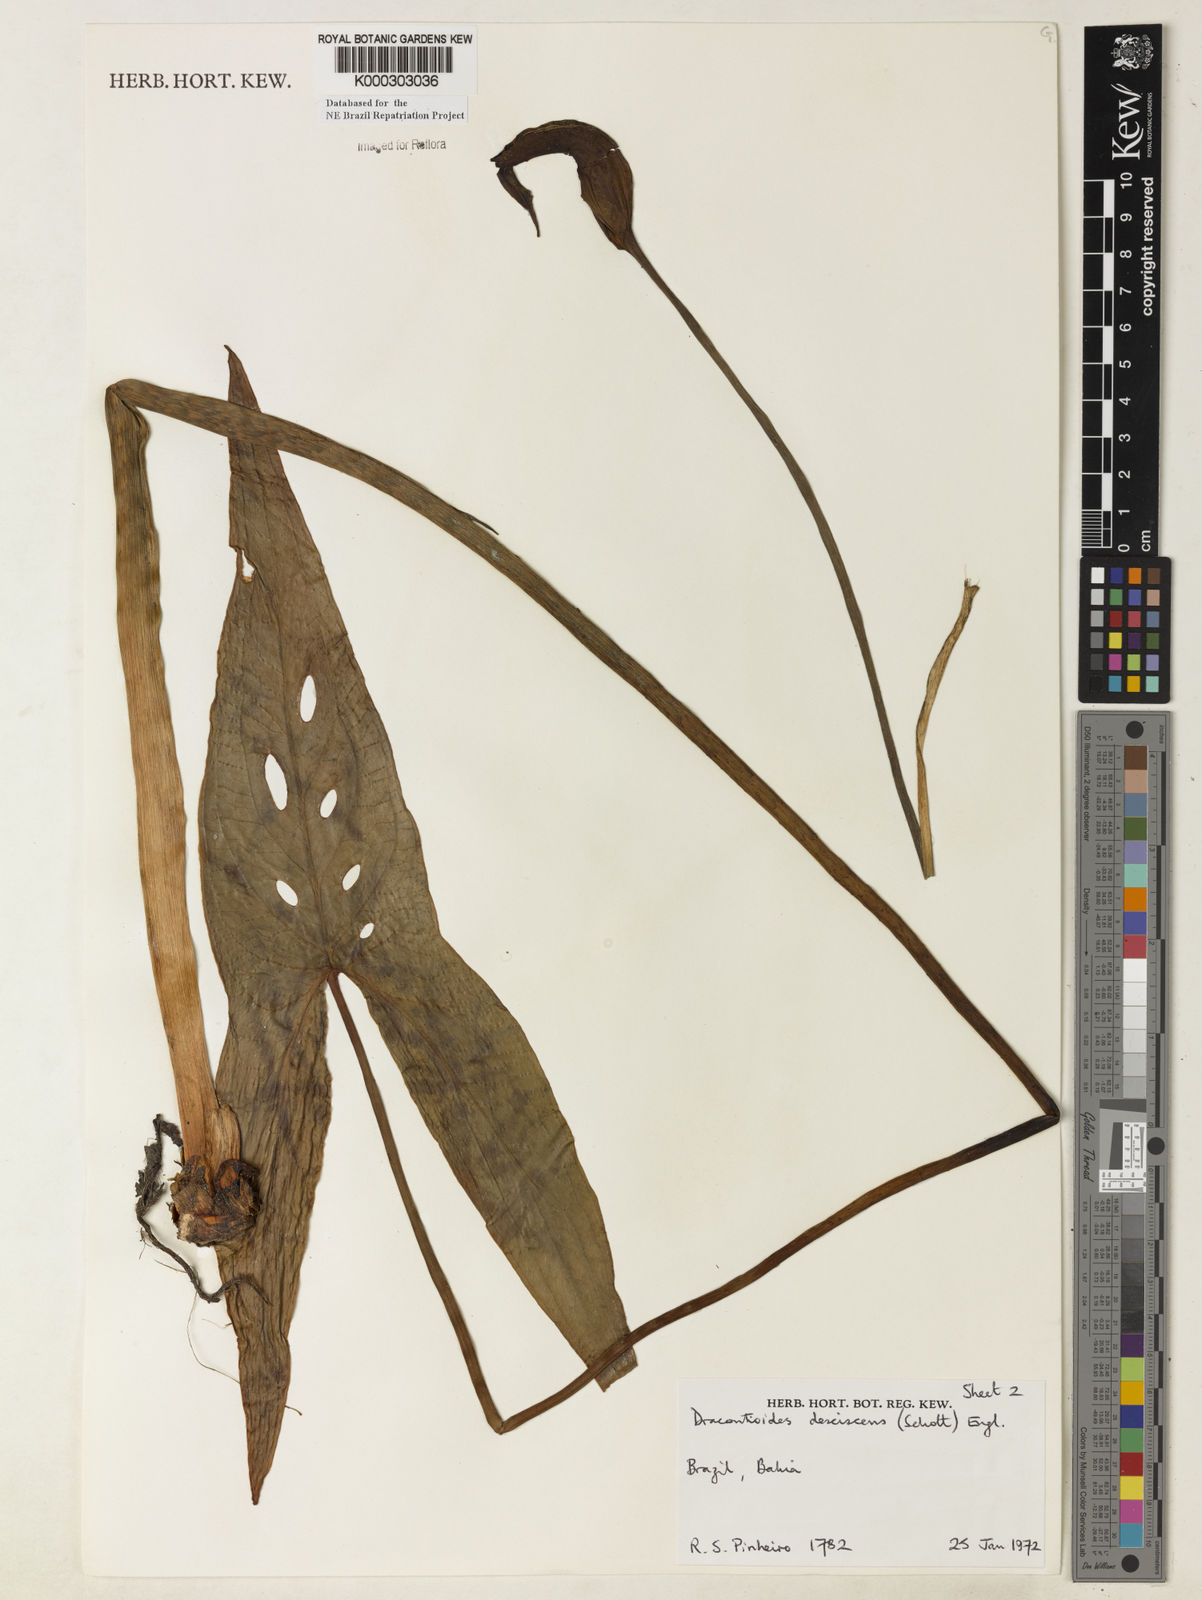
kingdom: Plantae
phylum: Tracheophyta
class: Liliopsida
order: Alismatales
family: Araceae
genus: Dracontioides
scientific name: Dracontioides desciscens
